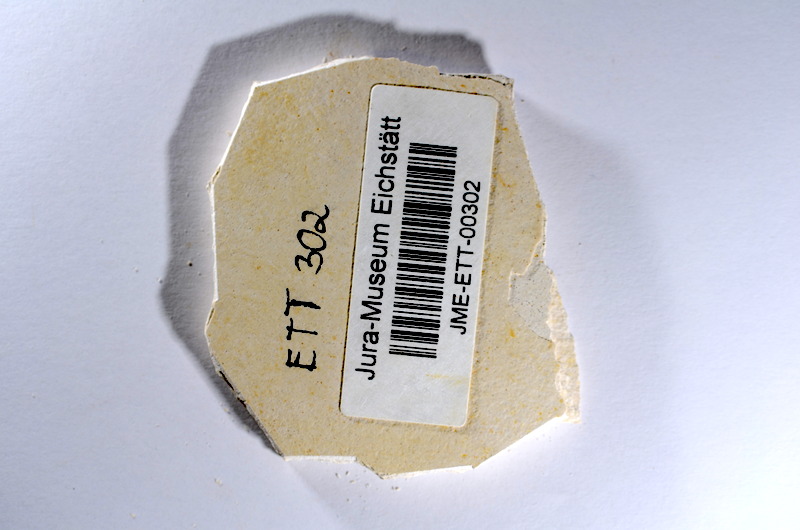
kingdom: Animalia
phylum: Chordata
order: Salmoniformes
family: Orthogonikleithridae
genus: Orthogonikleithrus
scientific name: Orthogonikleithrus hoelli
